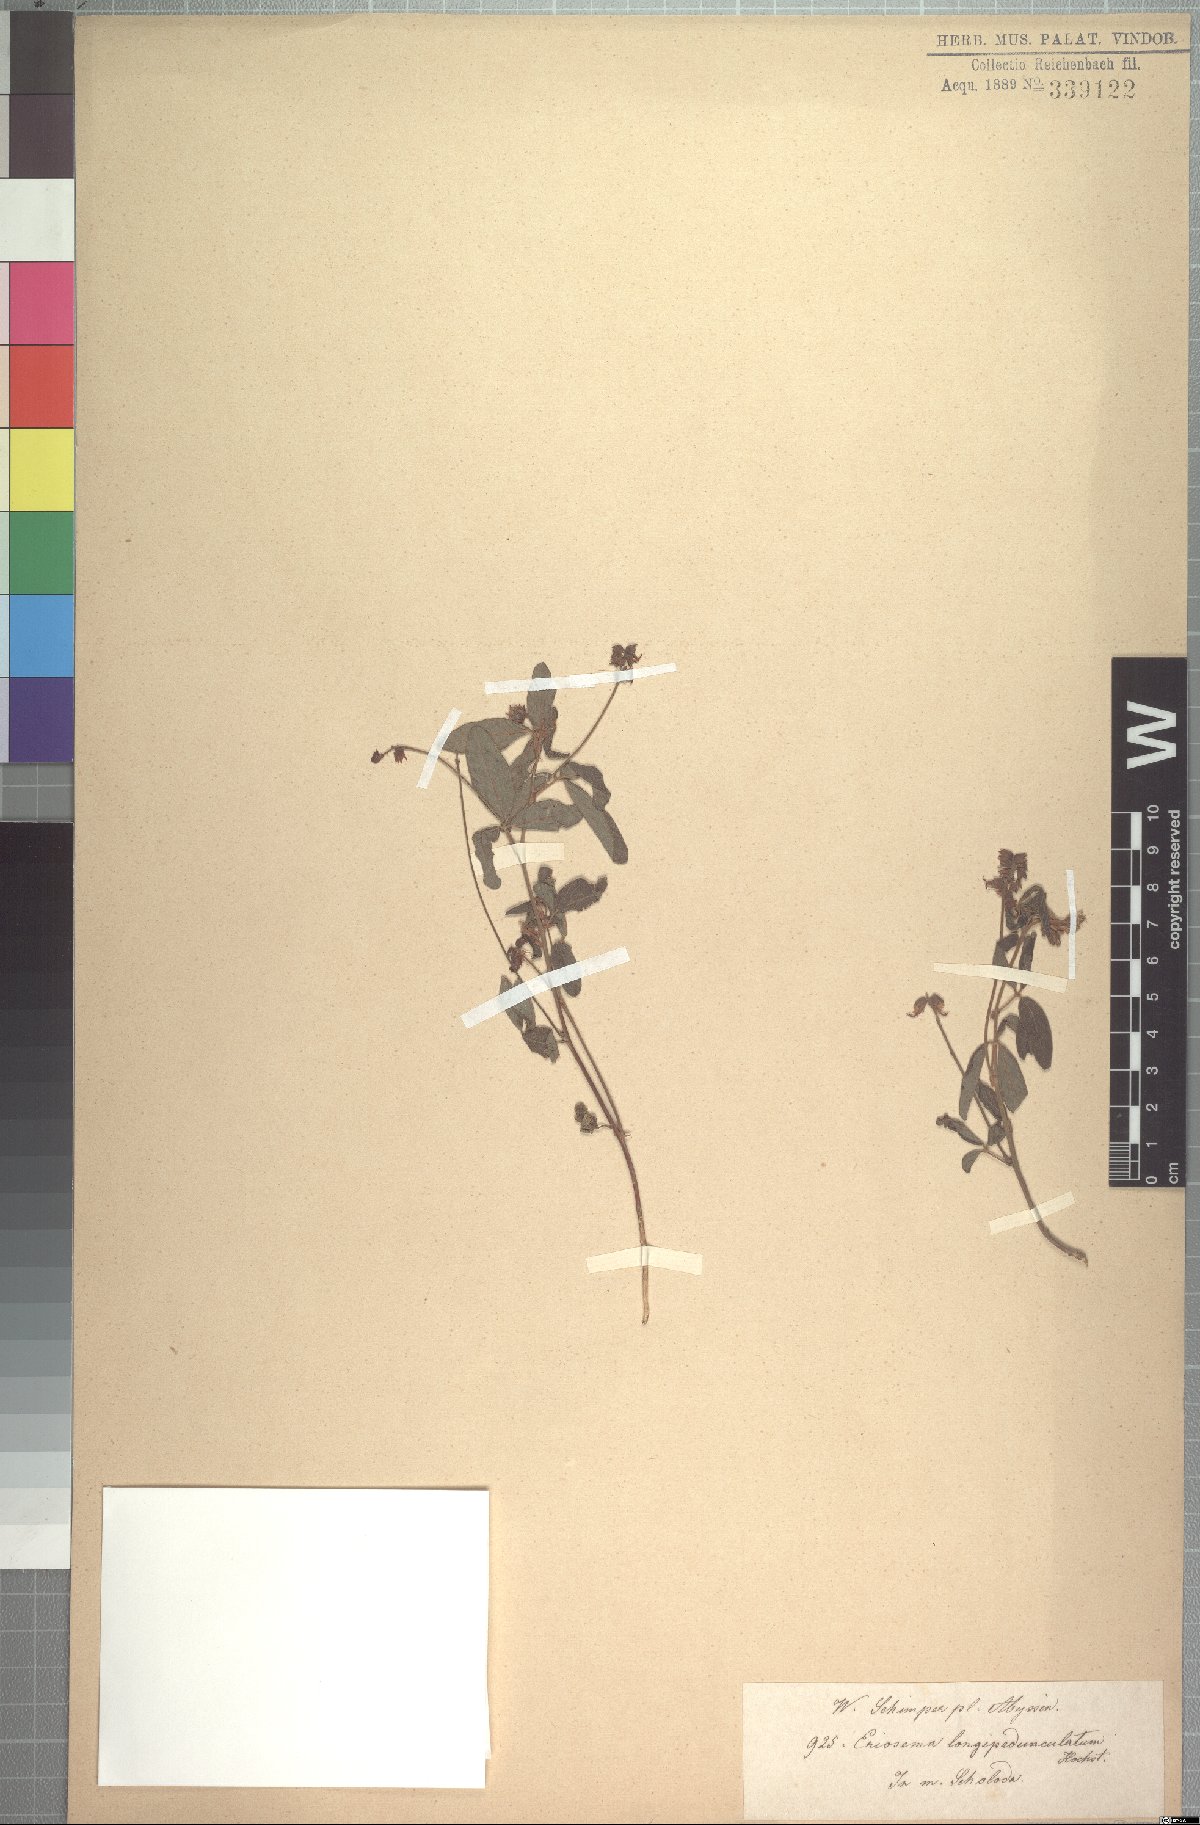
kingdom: Plantae
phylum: Tracheophyta
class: Magnoliopsida
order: Fabales
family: Fabaceae
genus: Eriosema
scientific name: Eriosema longipedunculatum
